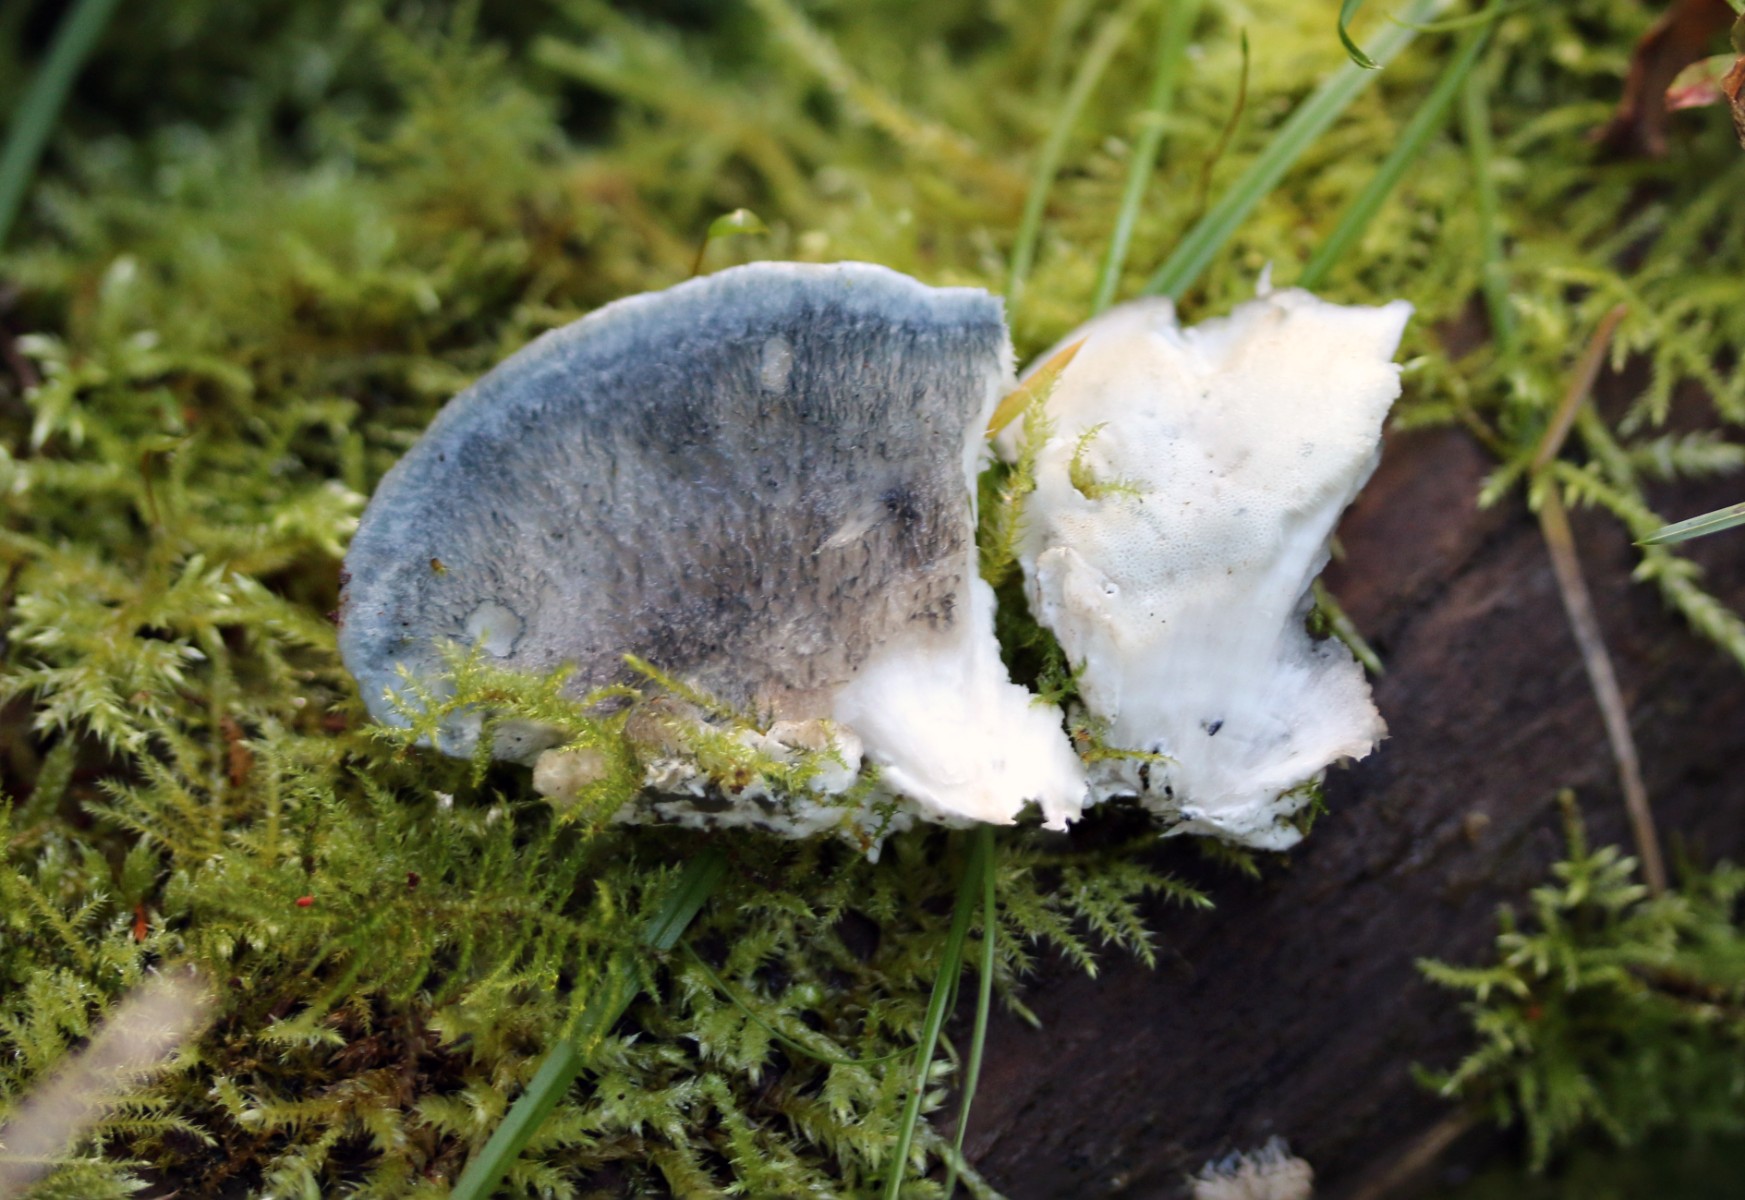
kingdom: Fungi
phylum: Basidiomycota
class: Agaricomycetes
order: Polyporales
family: Polyporaceae
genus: Cyanosporus
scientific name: Cyanosporus caesius
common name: blålig kødporesvamp
